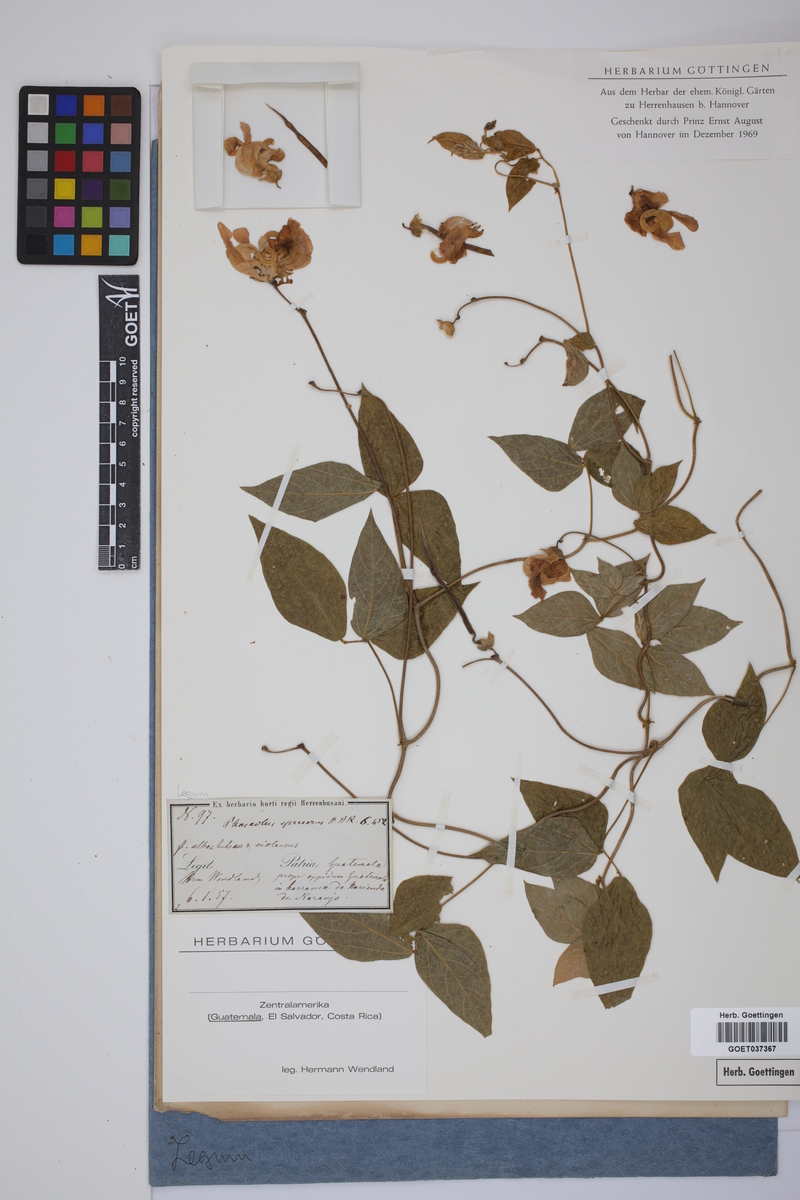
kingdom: Plantae
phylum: Tracheophyta
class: Magnoliopsida
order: Fabales
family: Fabaceae
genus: Sigmoidotropis
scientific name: Sigmoidotropis speciosa
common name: Snail flower
